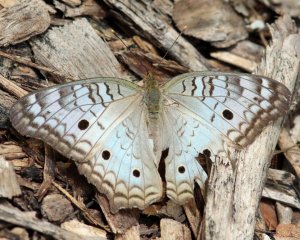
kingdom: Animalia
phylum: Arthropoda
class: Insecta
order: Lepidoptera
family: Nymphalidae
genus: Anartia
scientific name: Anartia jatrophae
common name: White Peacock
